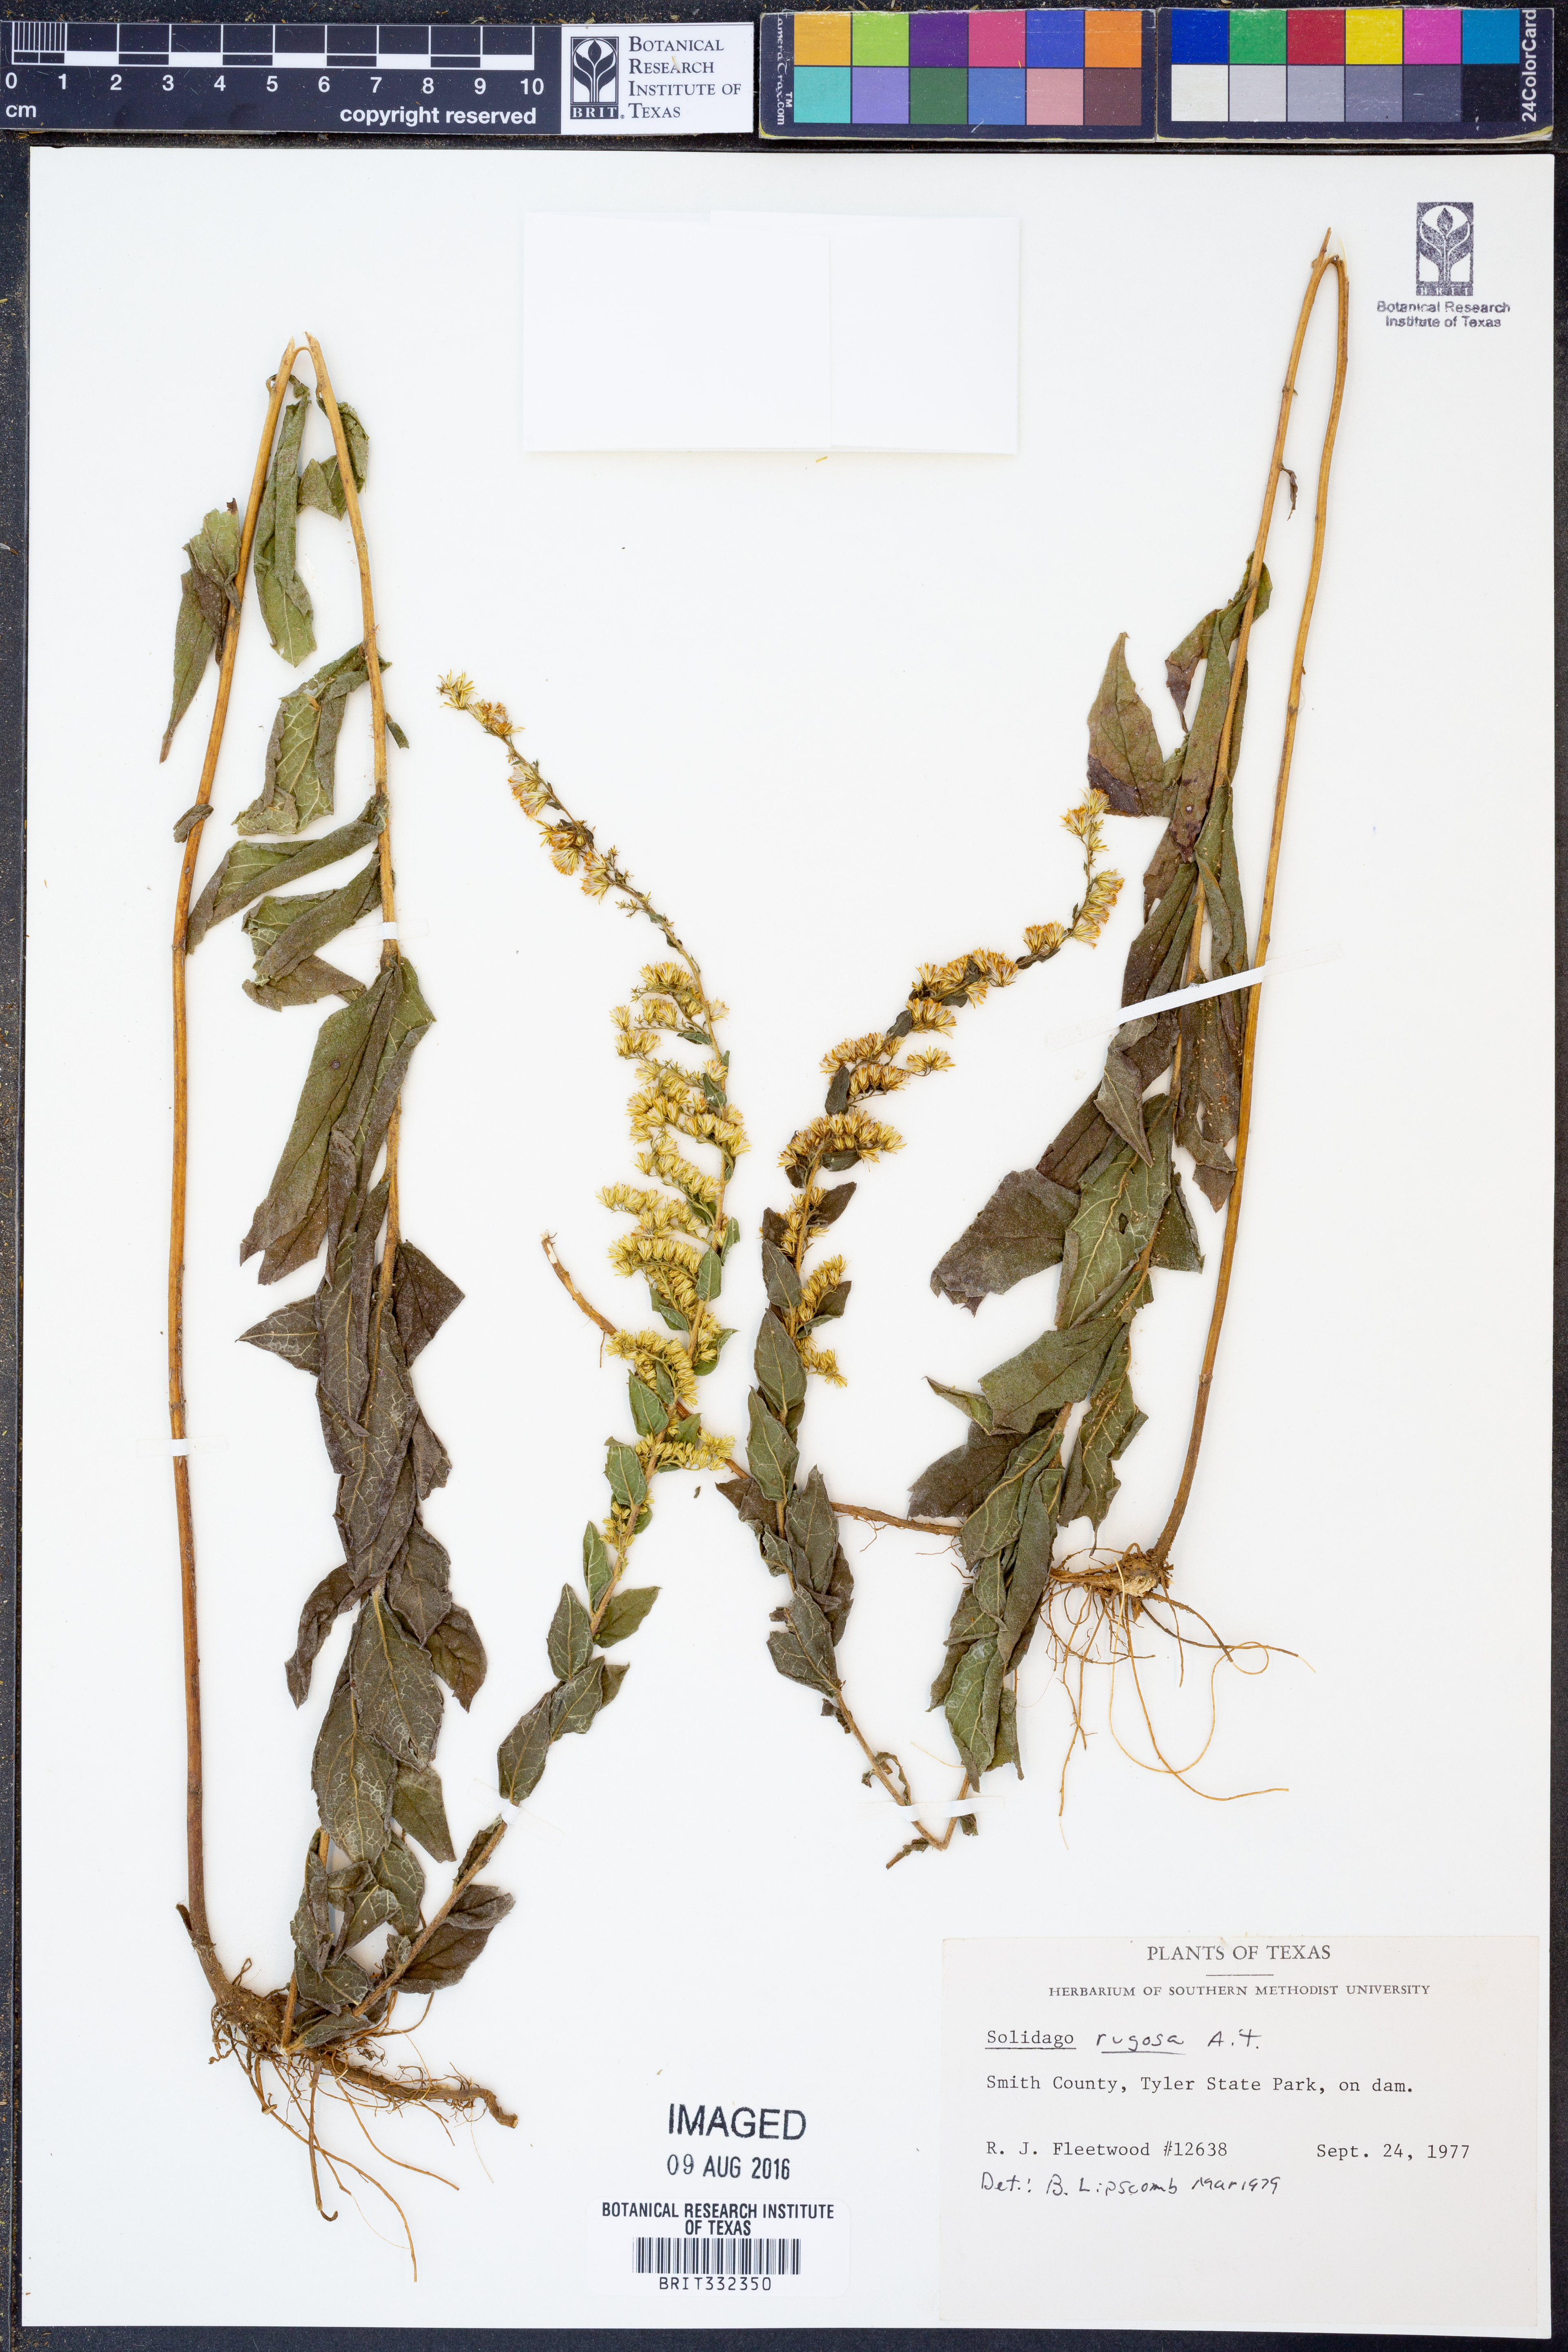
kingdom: Plantae
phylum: Tracheophyta
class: Magnoliopsida
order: Asterales
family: Asteraceae
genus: Solidago
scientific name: Solidago rugosa
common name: Rough-stemmed goldenrod
